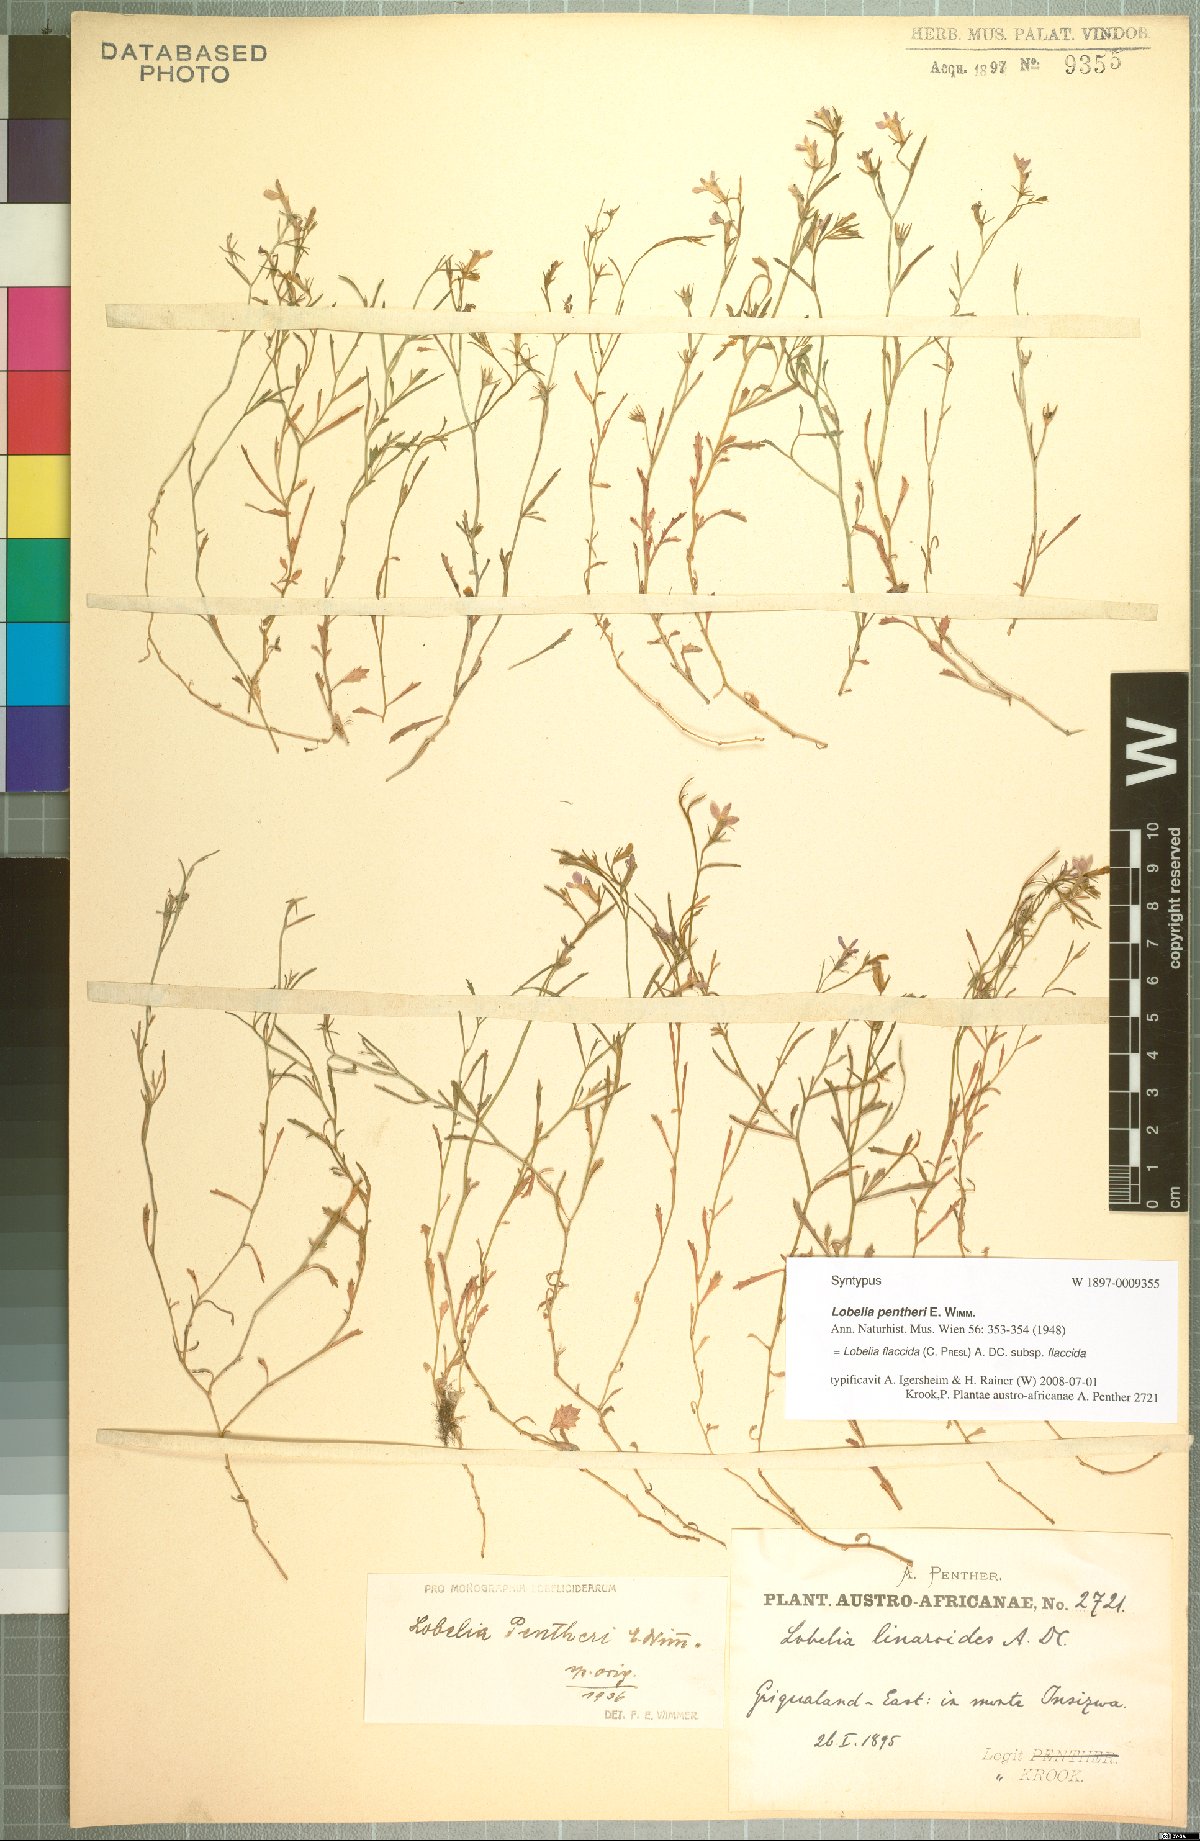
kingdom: Plantae
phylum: Tracheophyta
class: Magnoliopsida
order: Asterales
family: Campanulaceae
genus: Lobelia
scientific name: Lobelia flaccida
